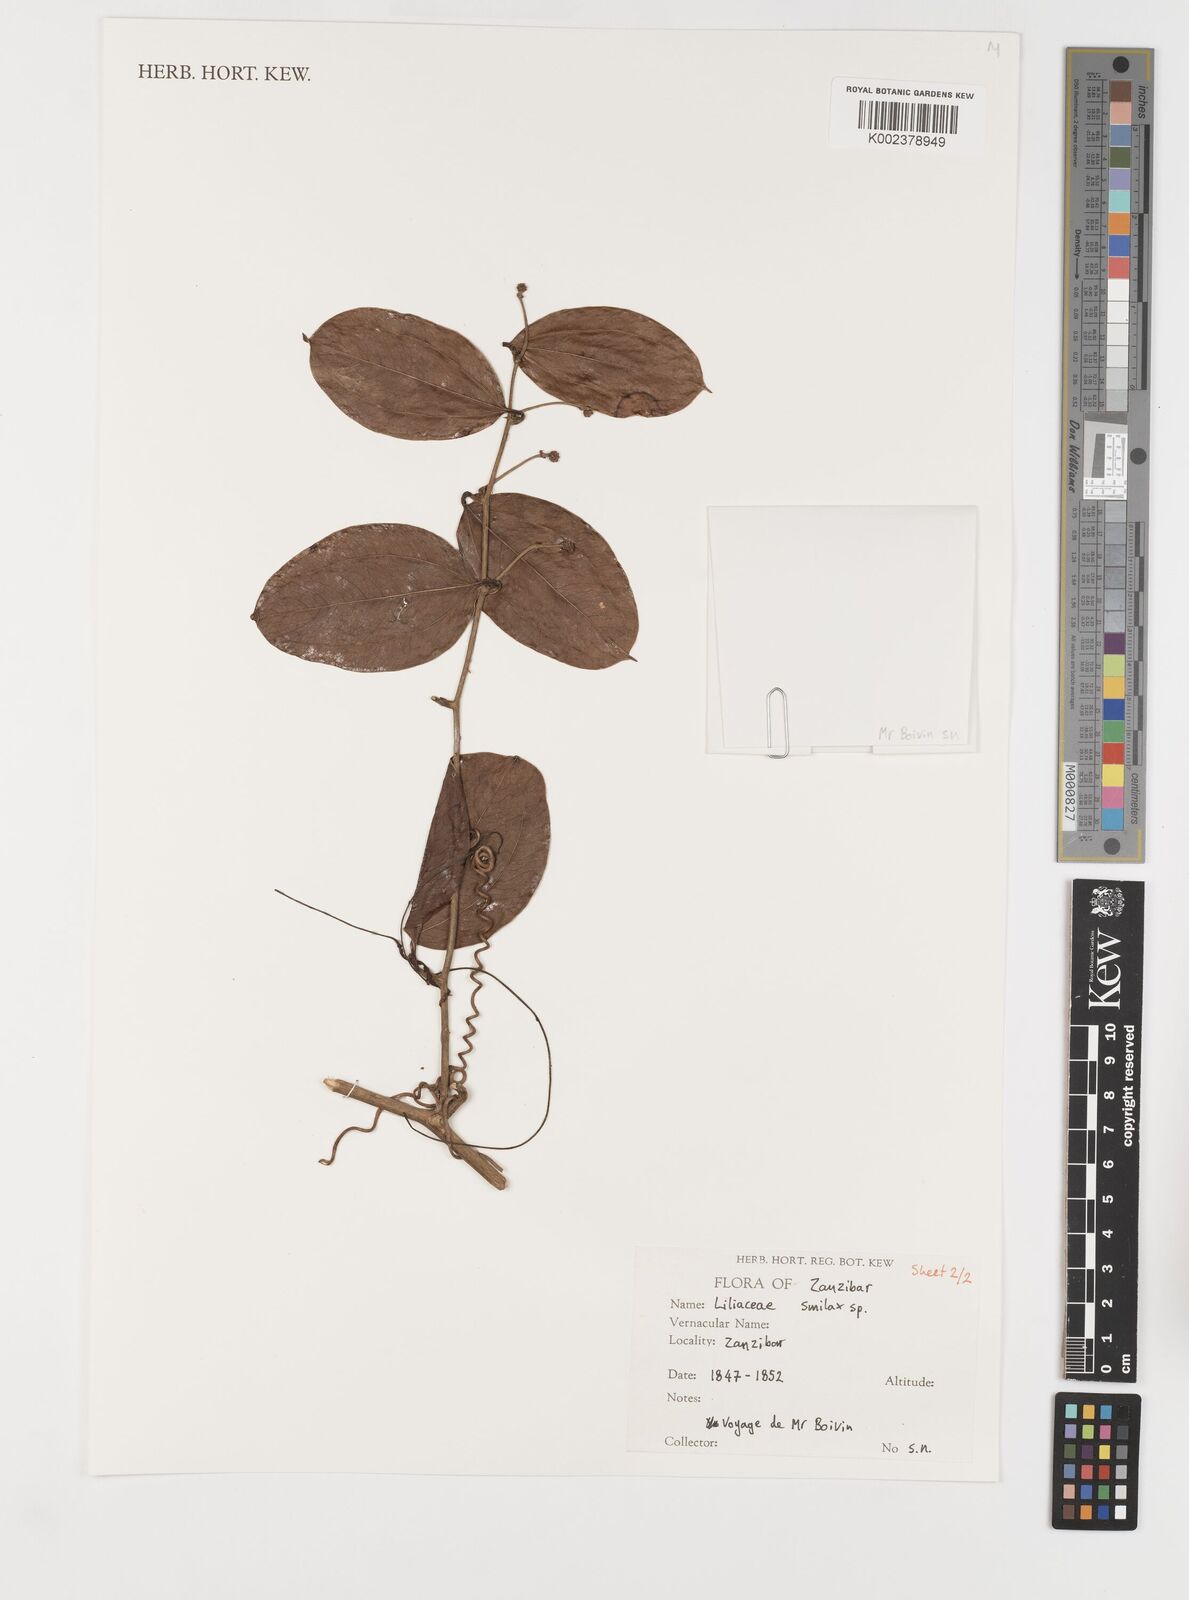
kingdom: Plantae
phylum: Tracheophyta
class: Liliopsida
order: Liliales
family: Smilacaceae
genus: Smilax
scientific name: Smilax
